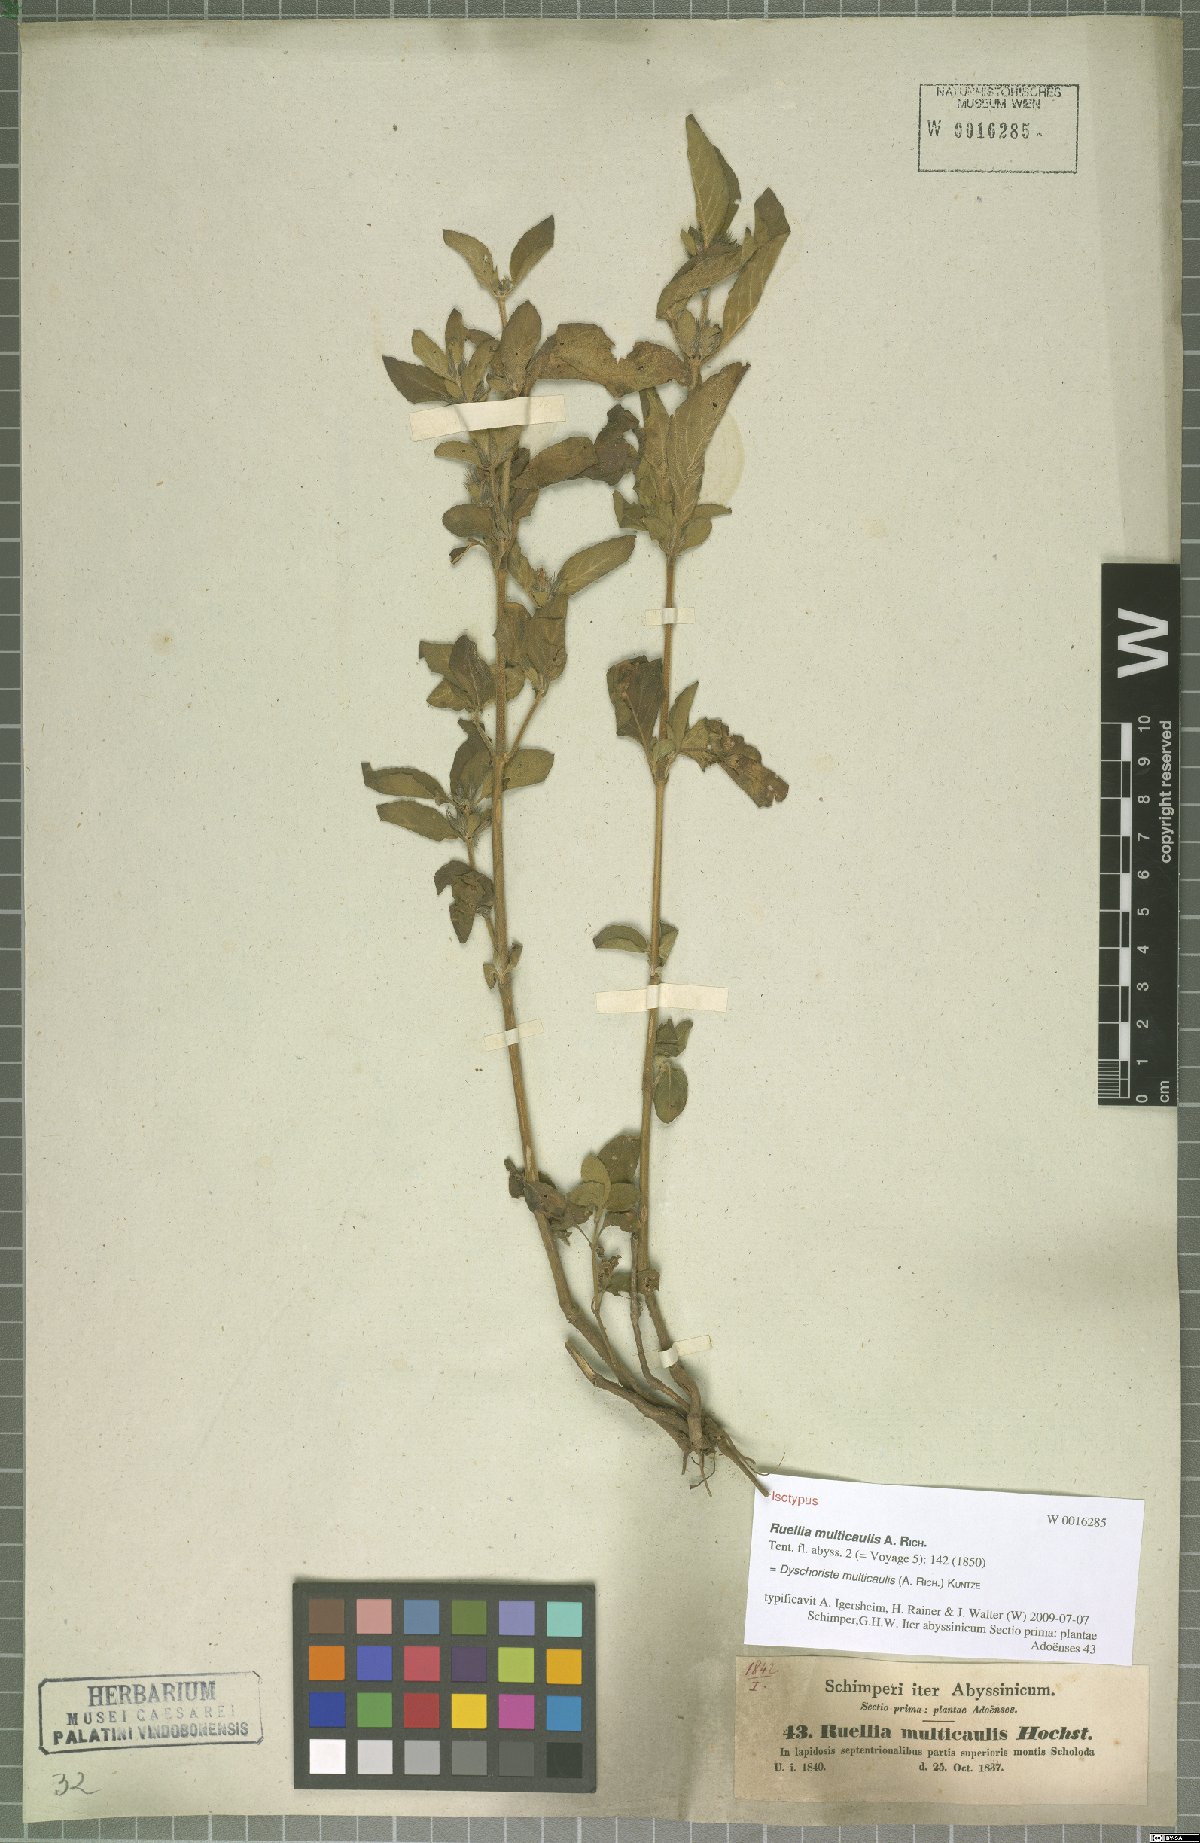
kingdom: Plantae
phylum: Tracheophyta
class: Magnoliopsida
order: Lamiales
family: Acanthaceae
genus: Dyschoriste
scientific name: Dyschoriste multicaulis
